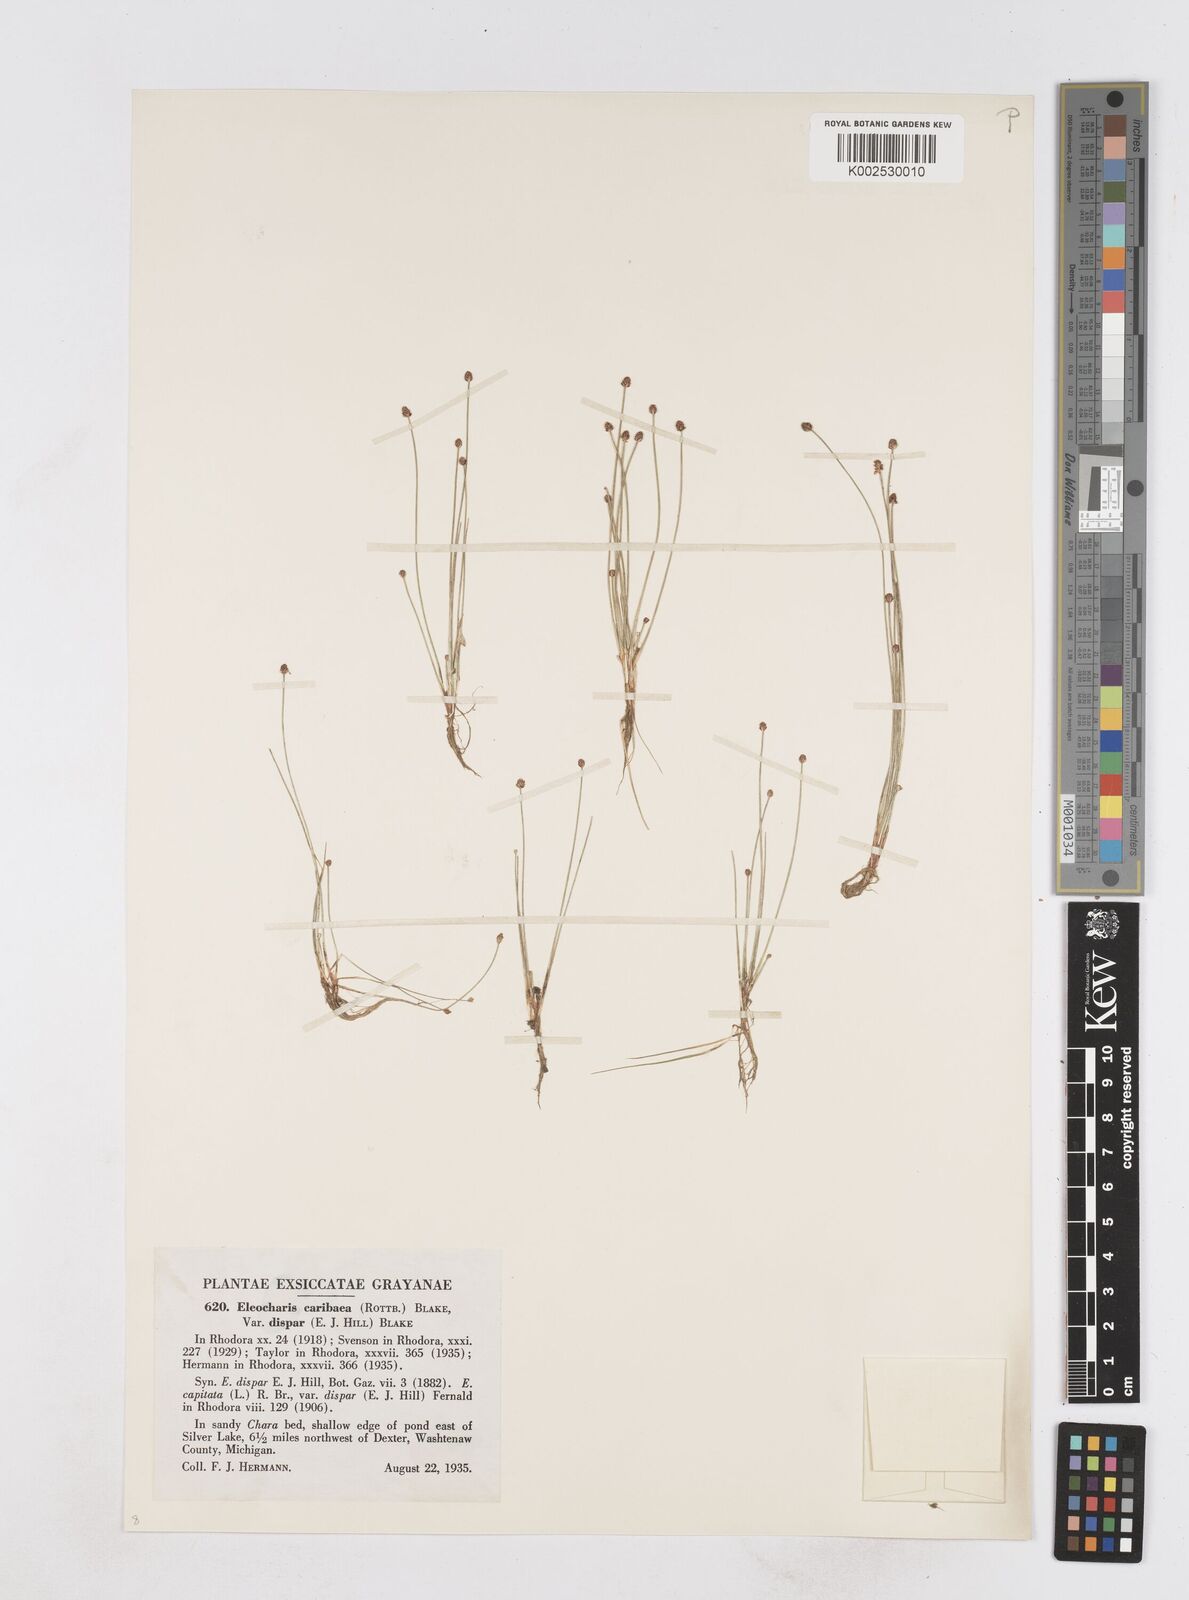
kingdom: Plantae
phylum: Tracheophyta
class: Liliopsida
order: Poales
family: Cyperaceae
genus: Eleocharis
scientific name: Eleocharis geniculata
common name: Canada spikesedge
